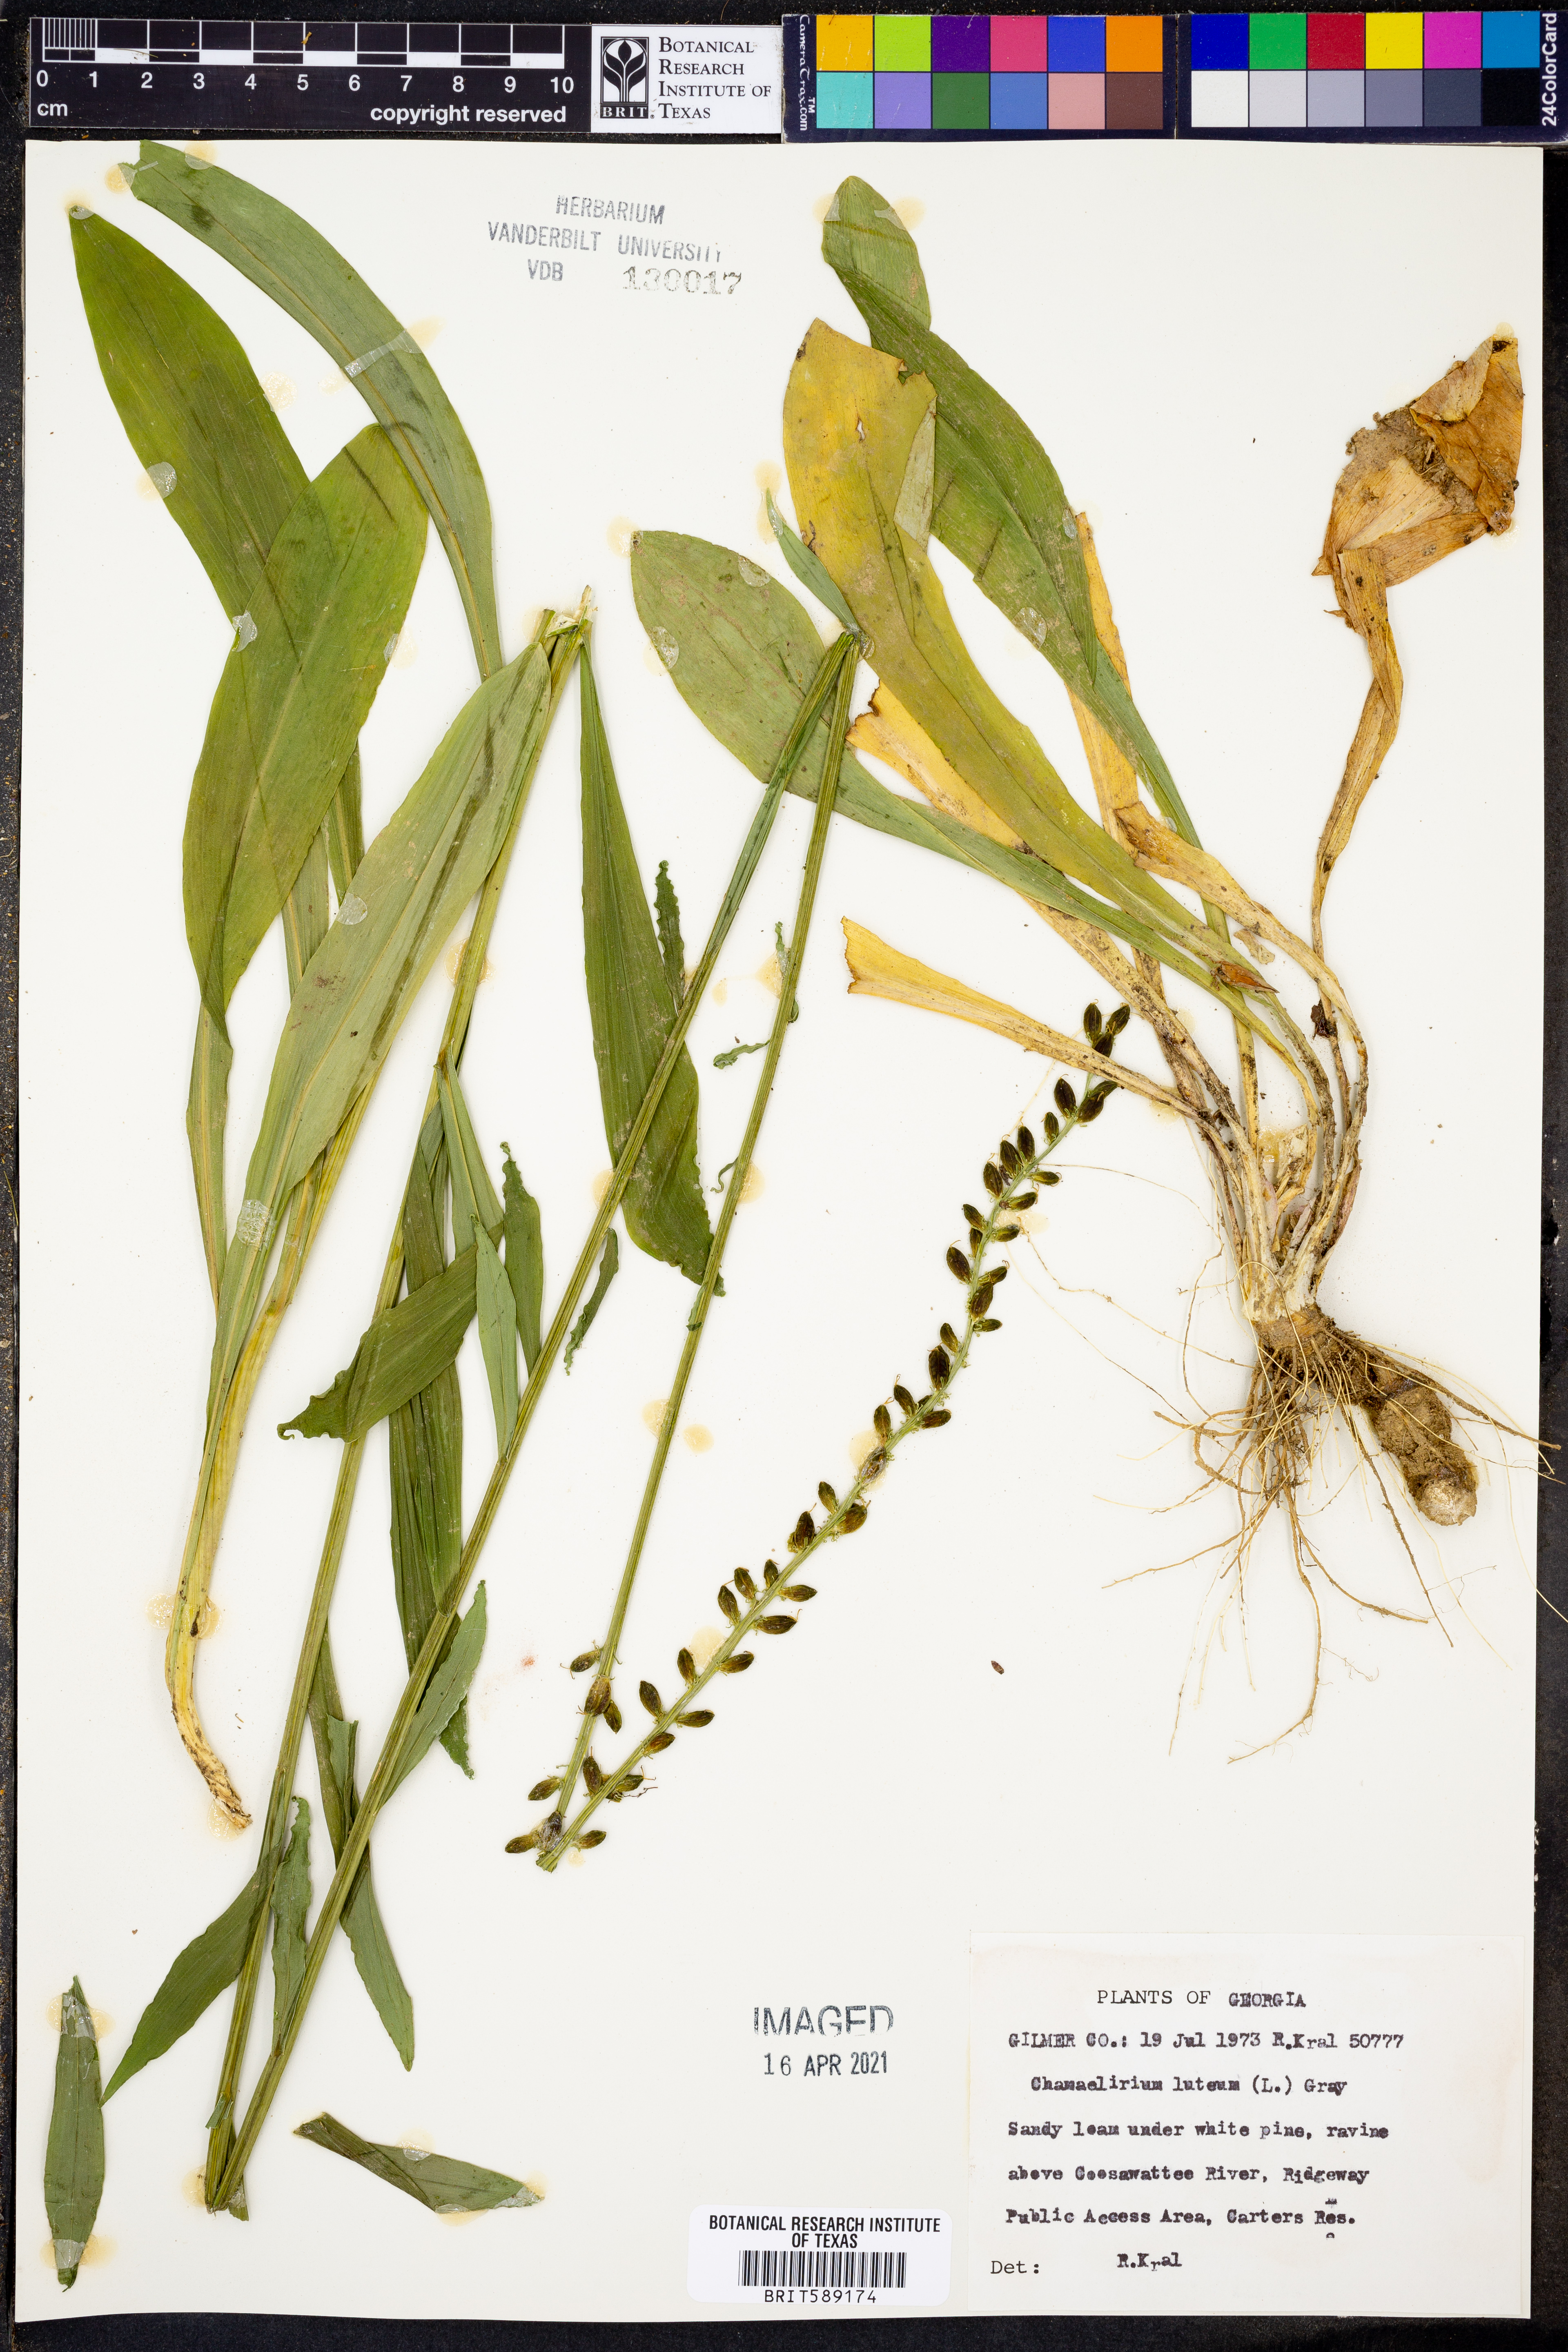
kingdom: Plantae
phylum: Tracheophyta
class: Liliopsida
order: Liliales
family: Melanthiaceae
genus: Chamaelirium
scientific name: Chamaelirium luteum
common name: Fairy-wand
